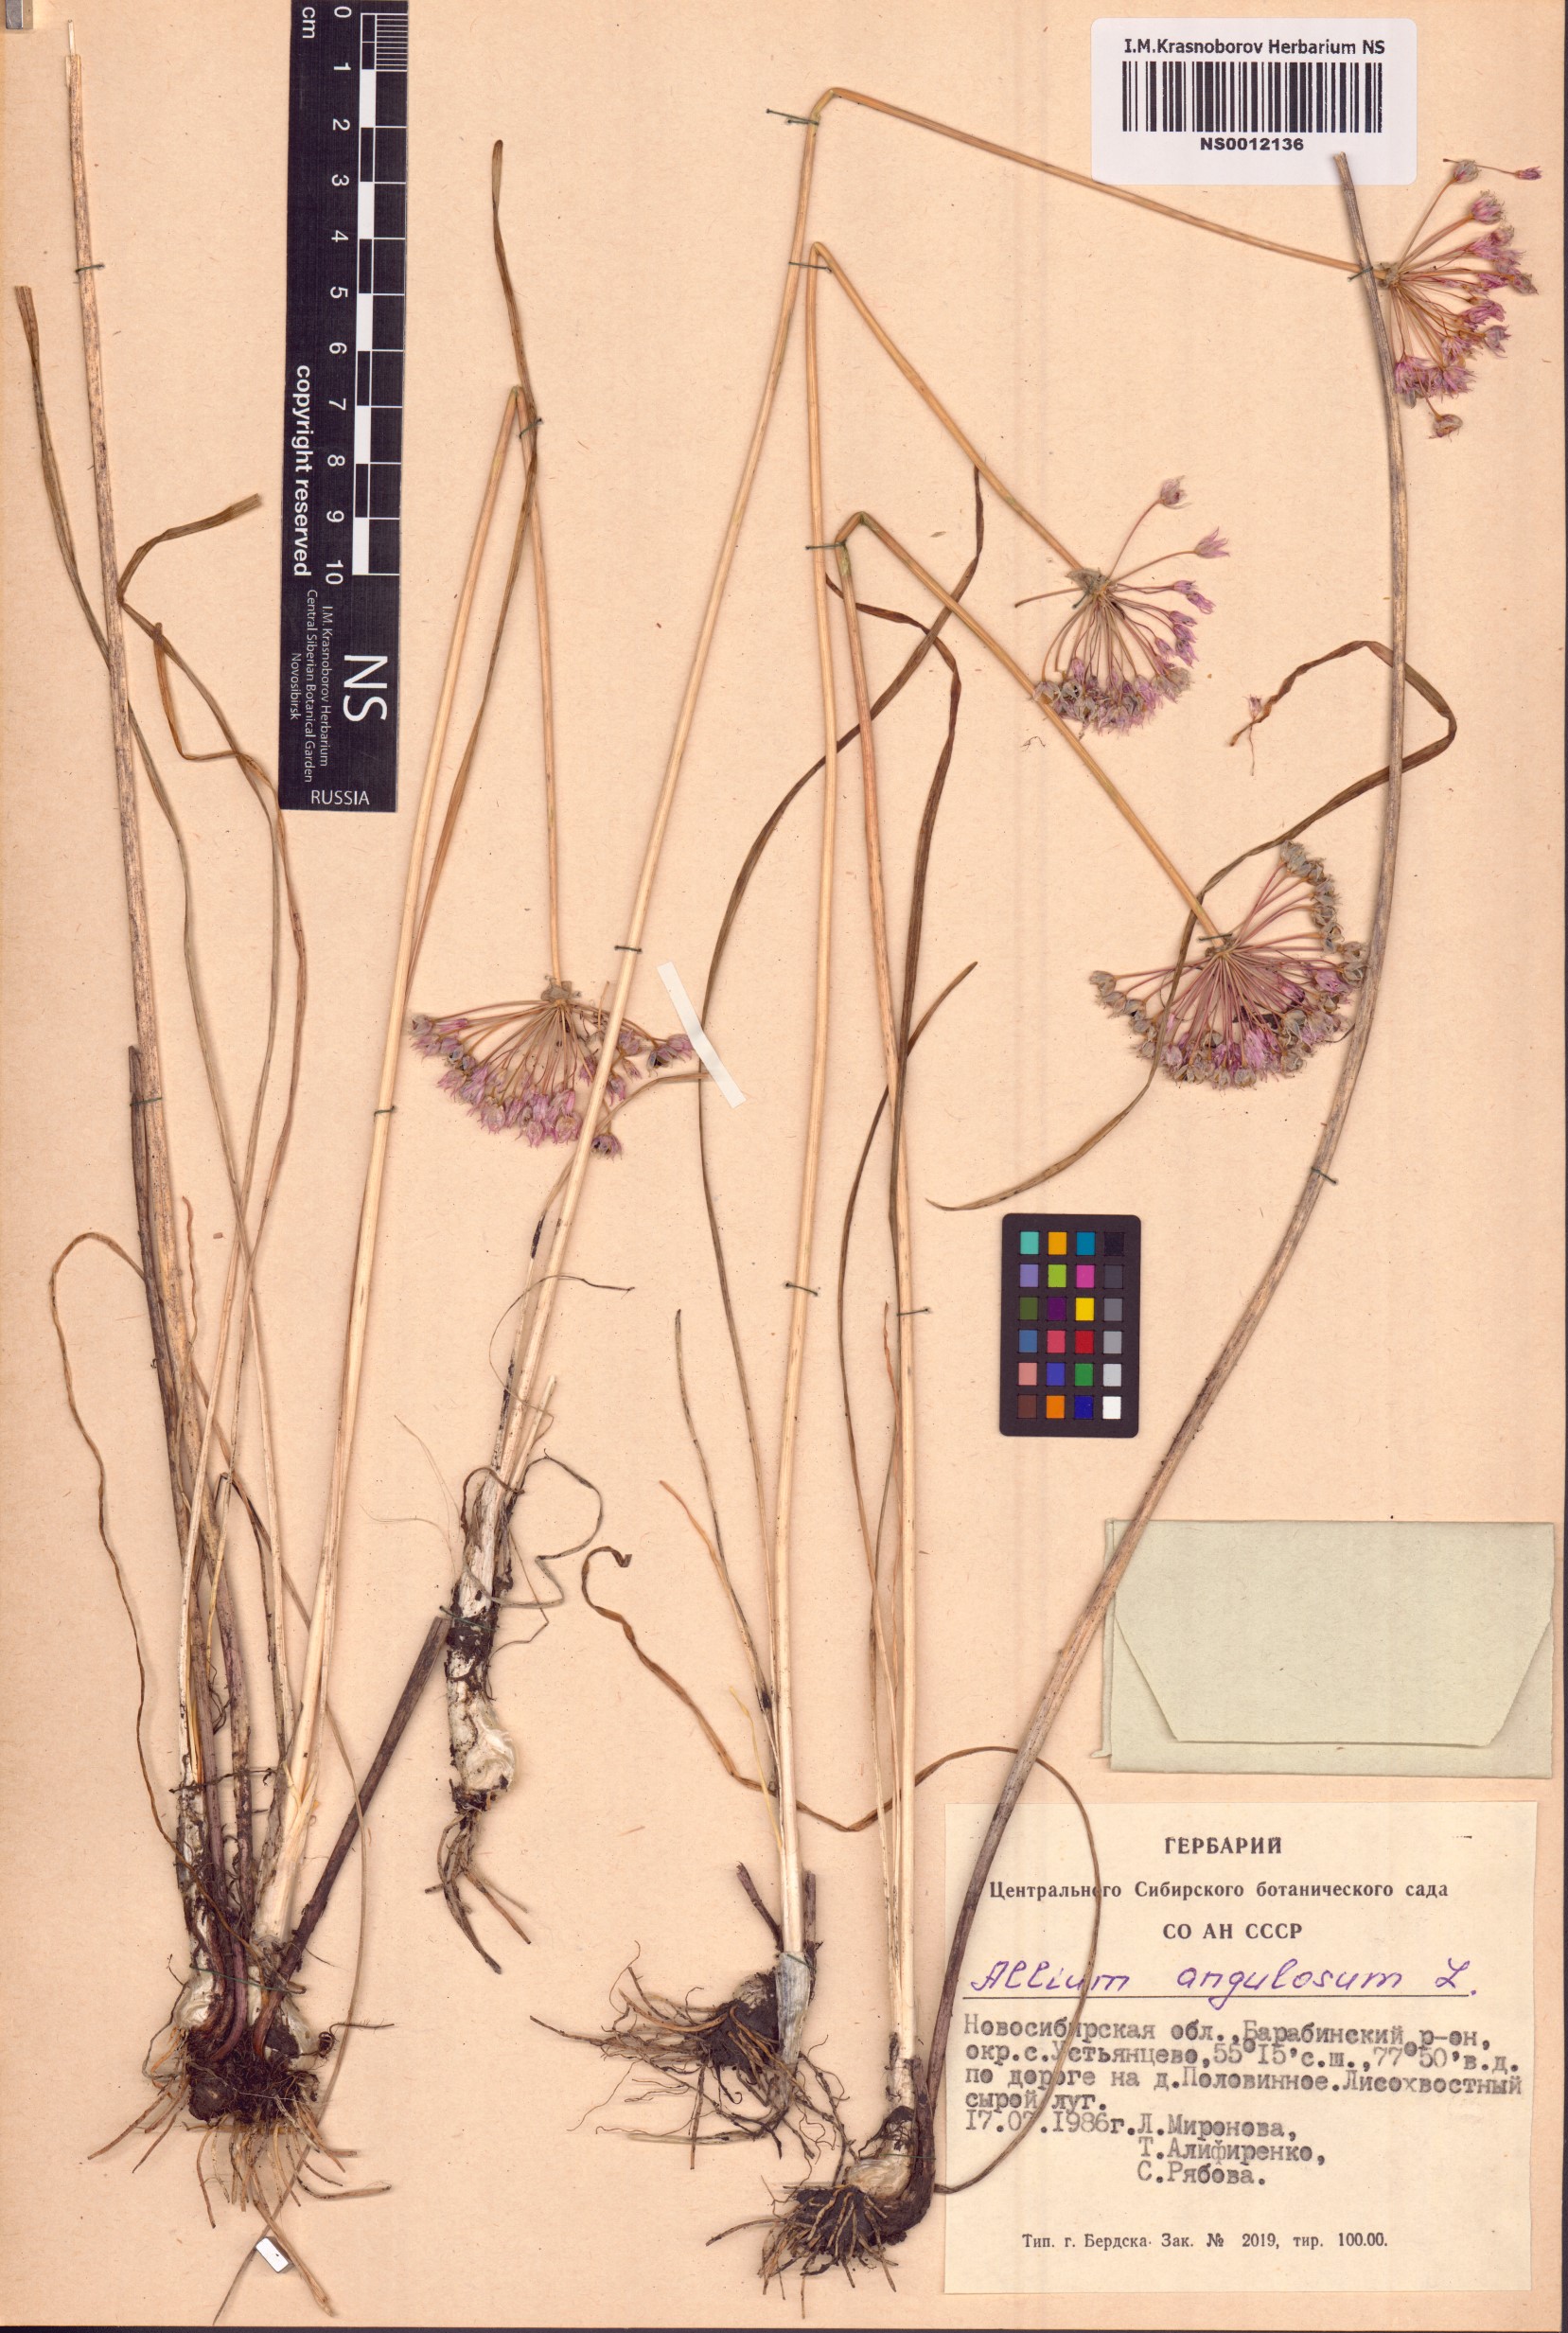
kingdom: Plantae
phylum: Tracheophyta
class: Liliopsida
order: Asparagales
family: Amaryllidaceae
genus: Allium
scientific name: Allium angulosum
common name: Mouse garlic
